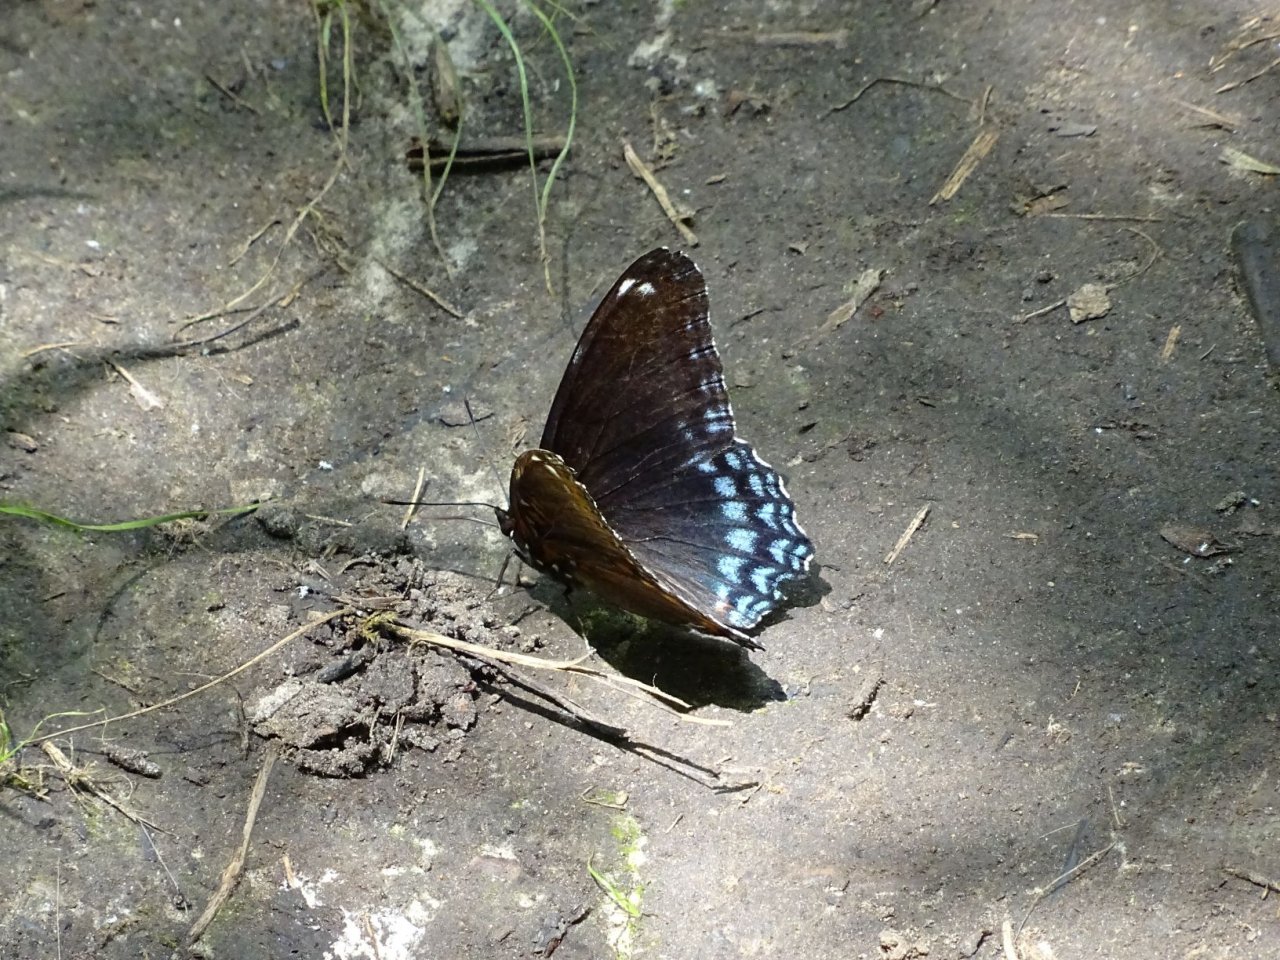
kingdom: Animalia
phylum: Arthropoda
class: Insecta
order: Lepidoptera
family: Nymphalidae
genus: Limenitis
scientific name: Limenitis astyanax
